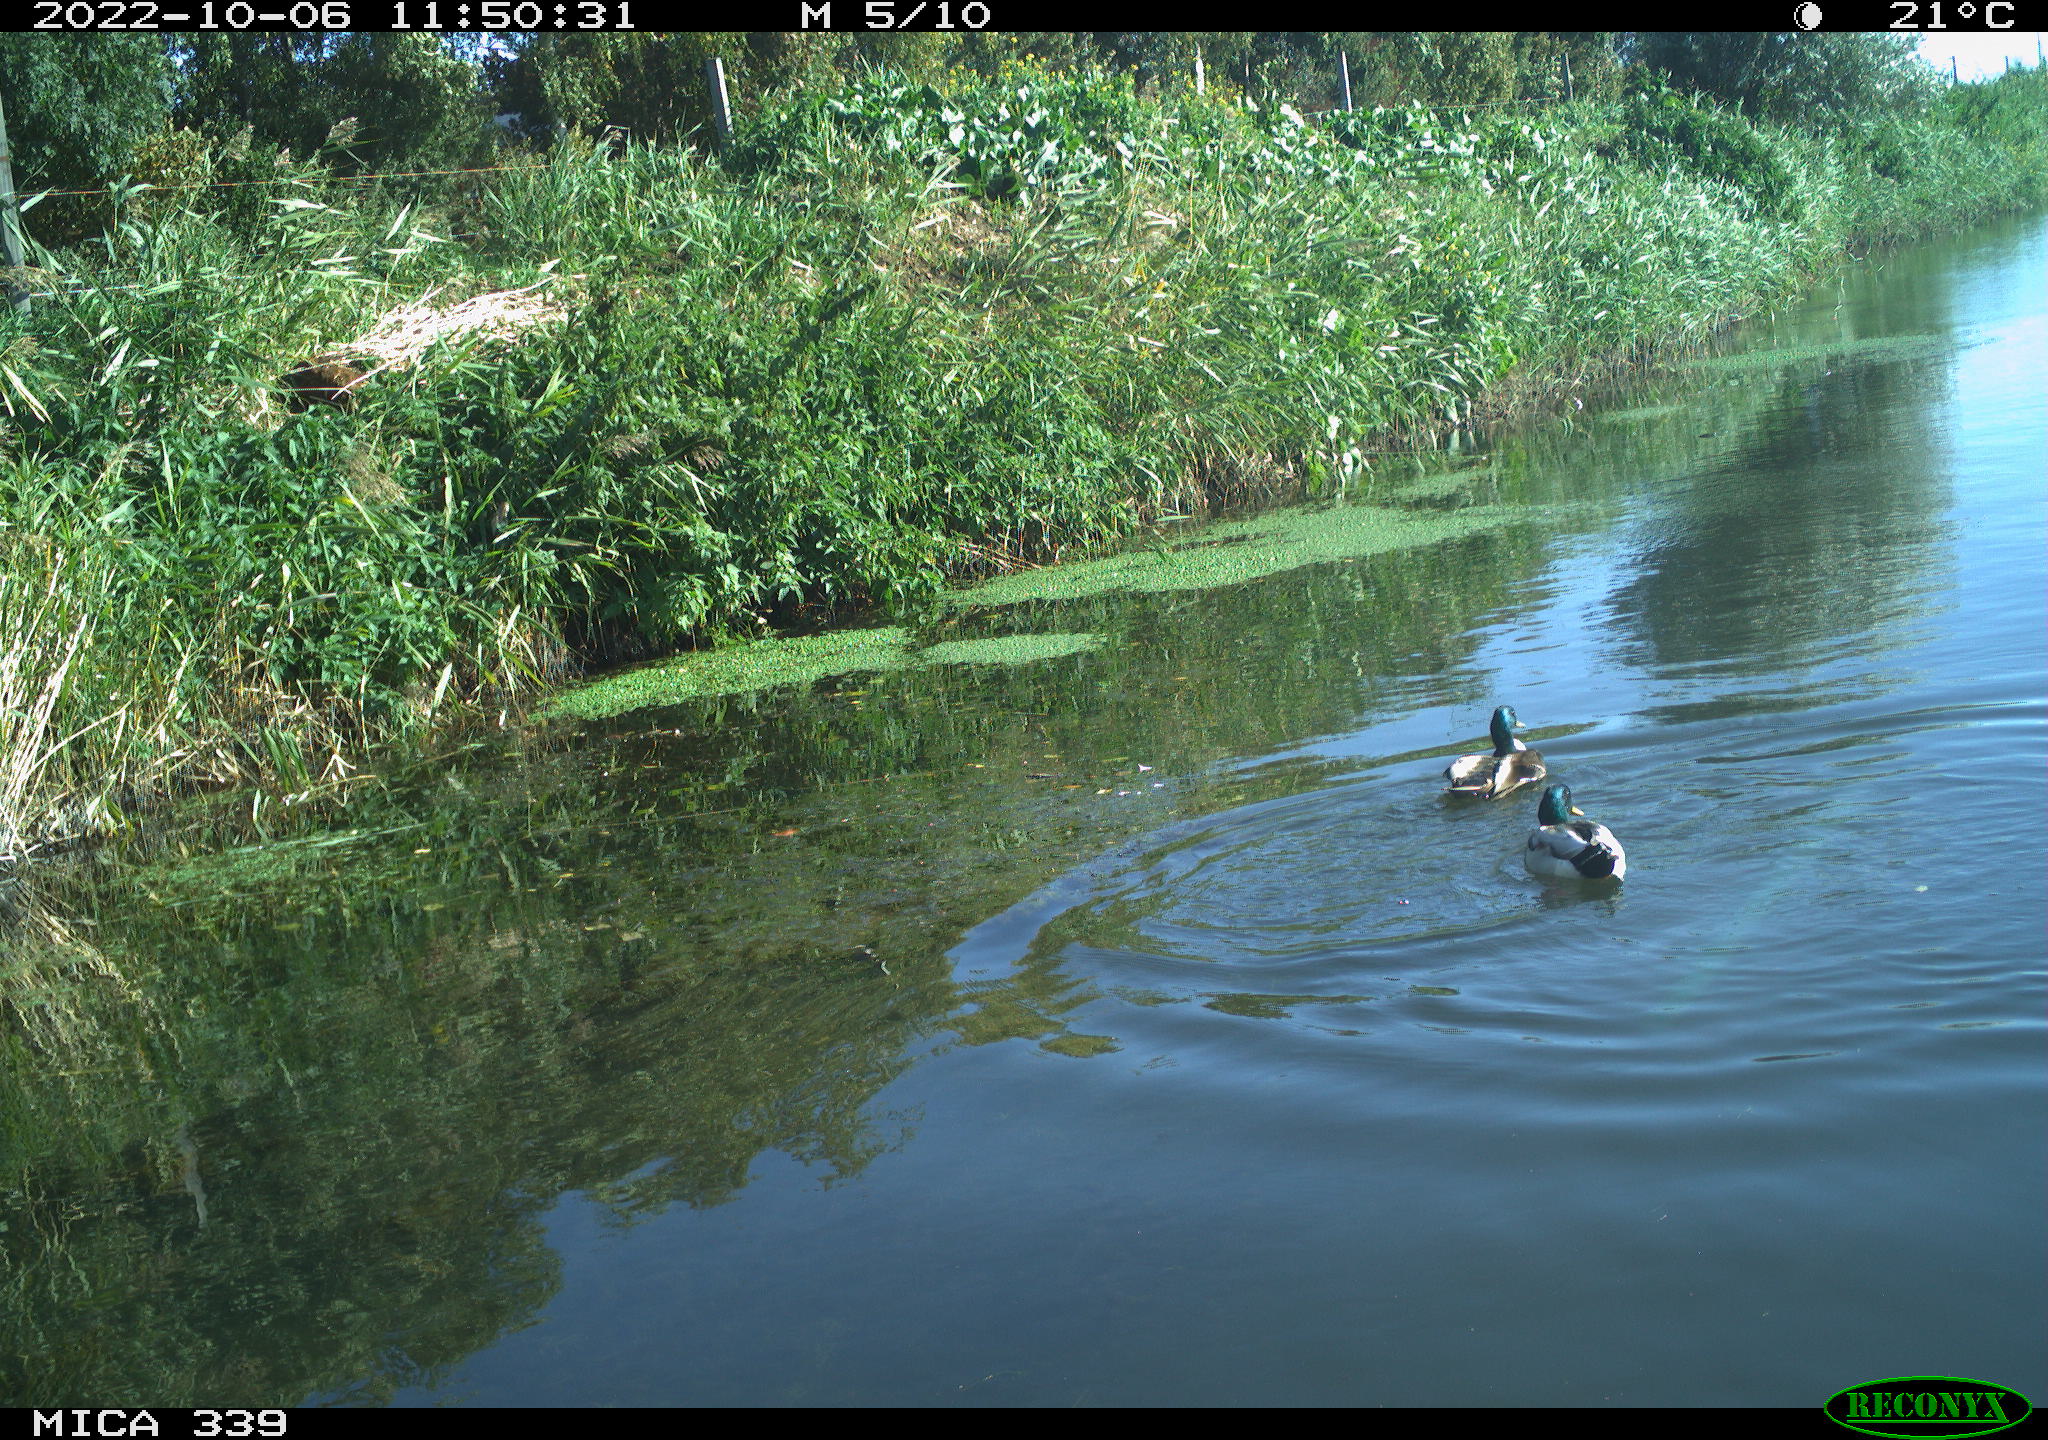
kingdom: Animalia
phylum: Chordata
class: Aves
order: Anseriformes
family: Anatidae
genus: Anas
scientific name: Anas platyrhynchos
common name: Mallard
